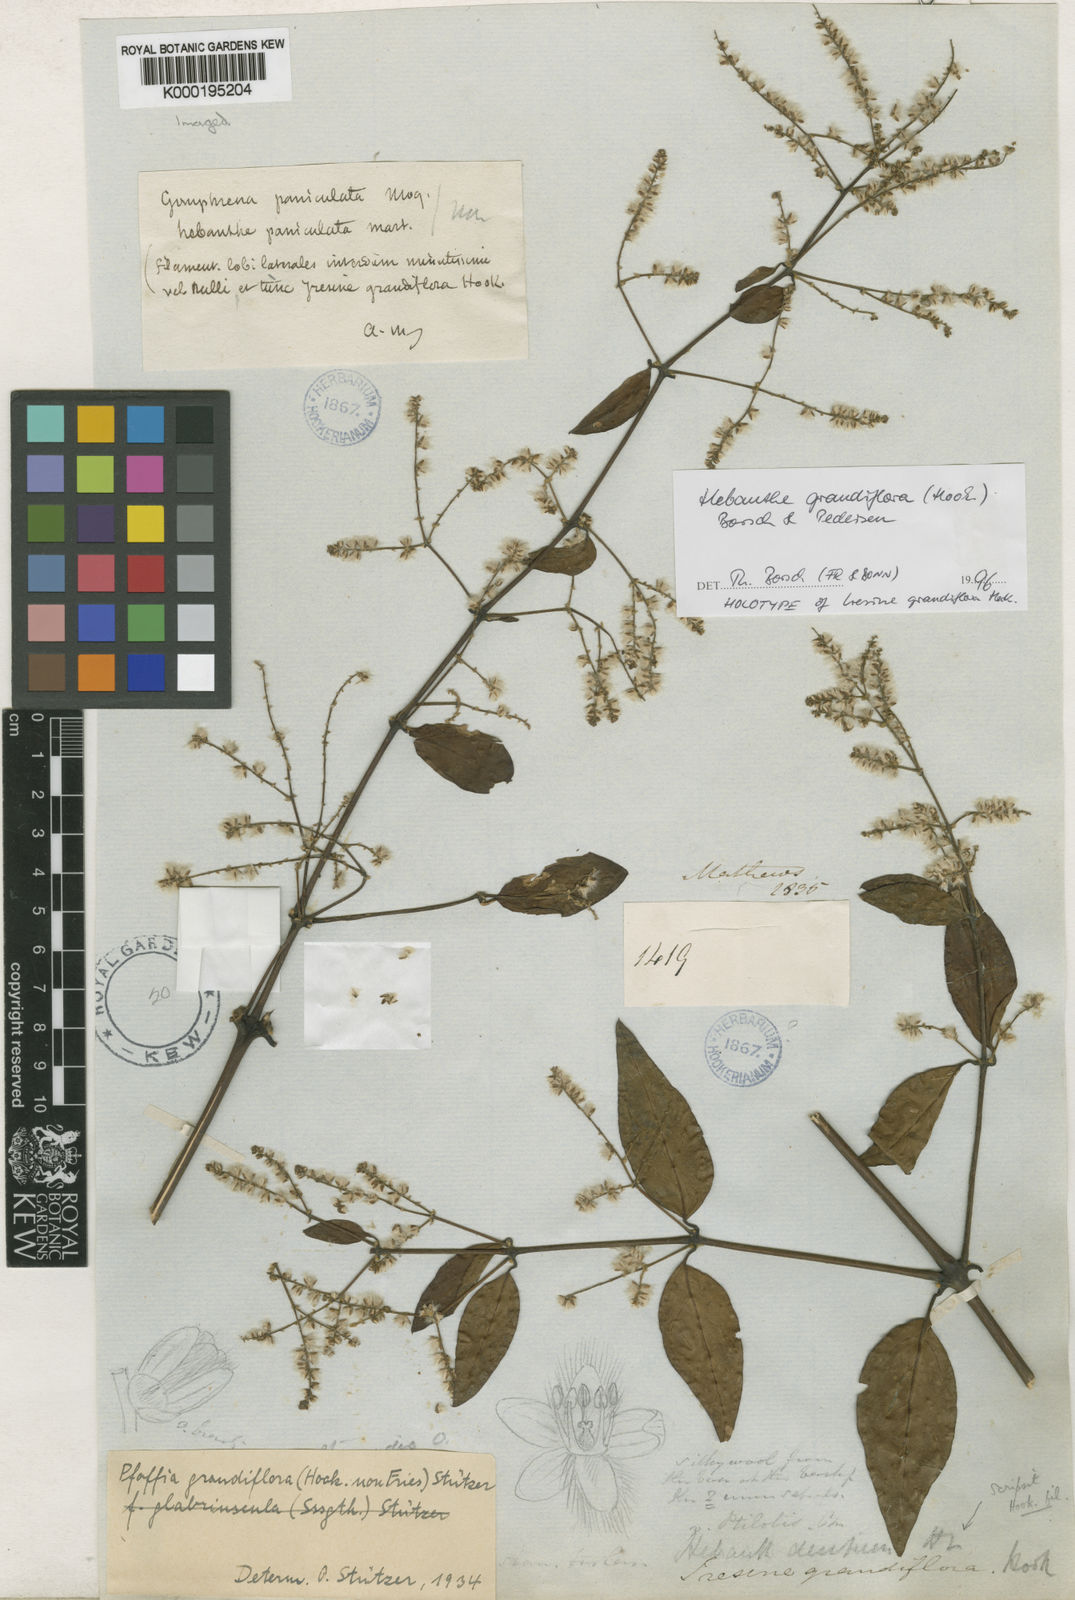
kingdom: Plantae
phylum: Tracheophyta
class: Magnoliopsida
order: Caryophyllales
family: Amaranthaceae
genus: Hebanthe
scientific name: Hebanthe grandiflora
